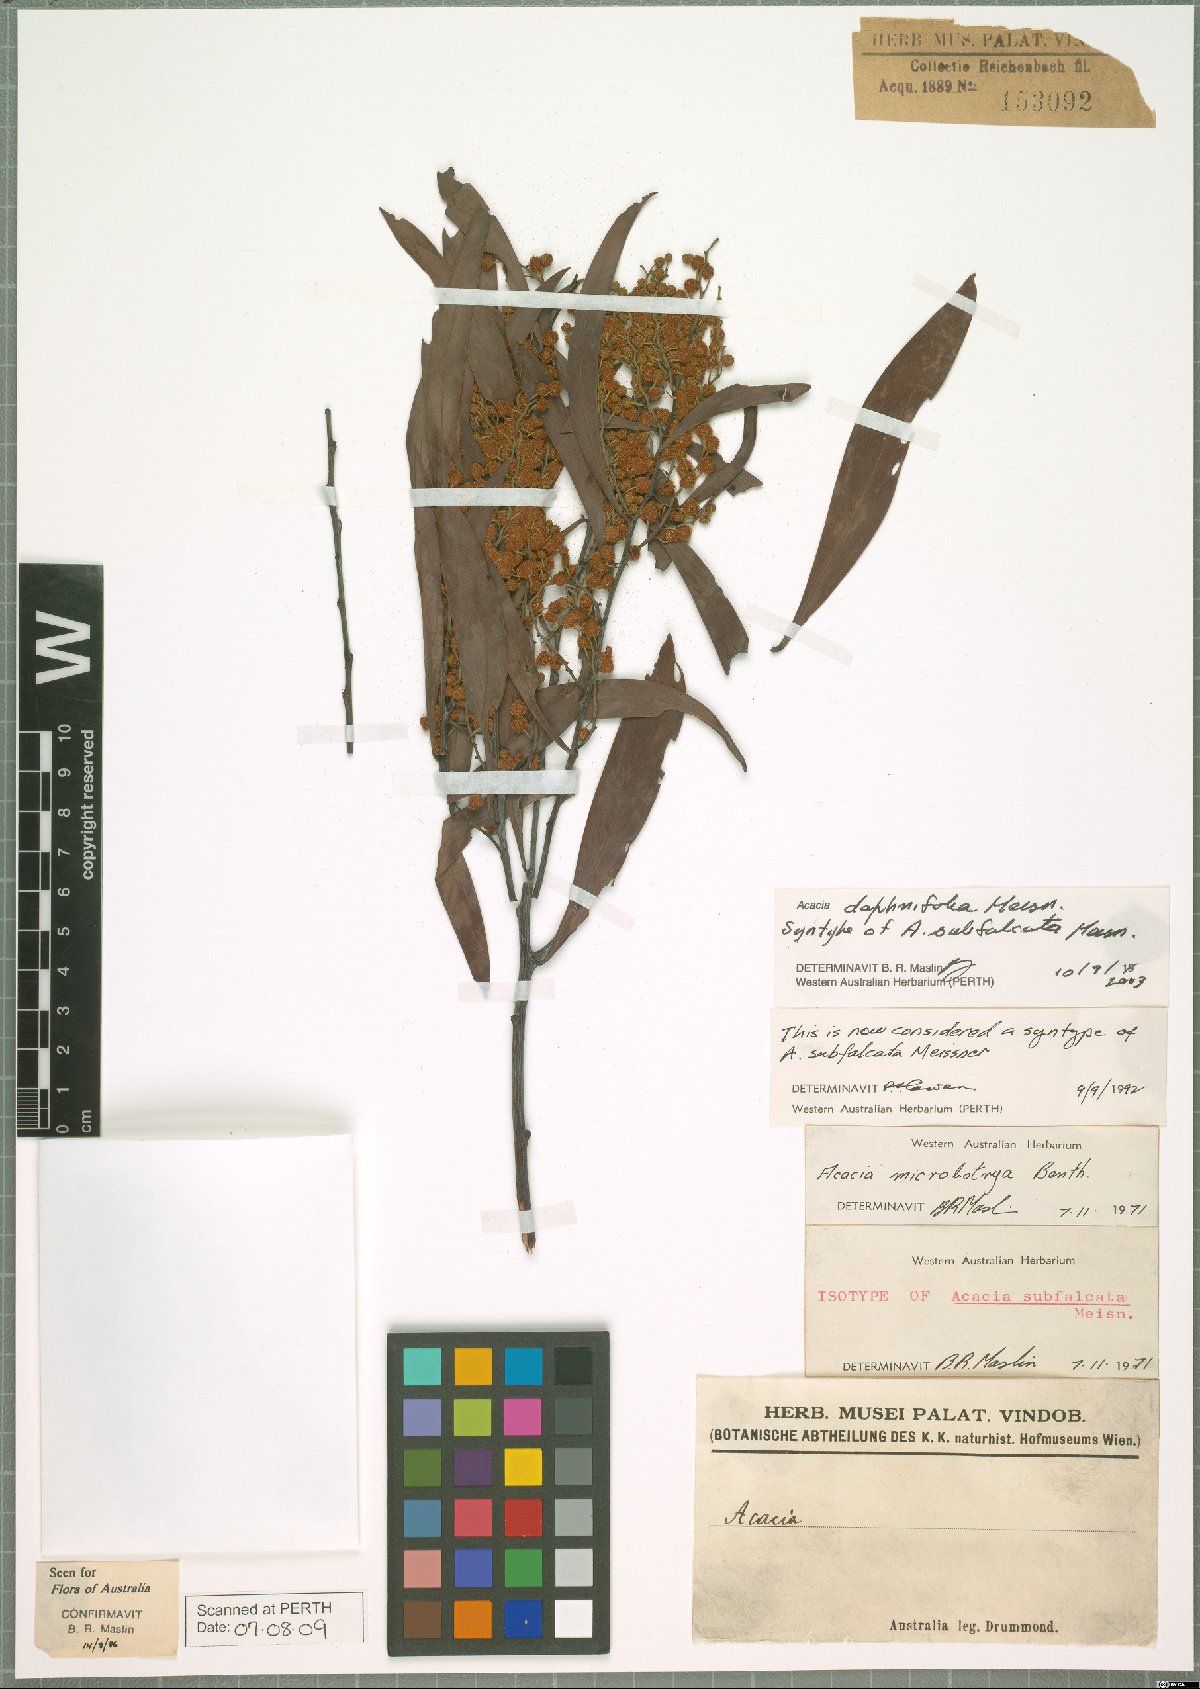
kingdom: Plantae
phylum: Tracheophyta
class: Magnoliopsida
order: Fabales
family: Fabaceae
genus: Acacia
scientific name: Acacia daphnifolia
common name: Northern manna wattle
